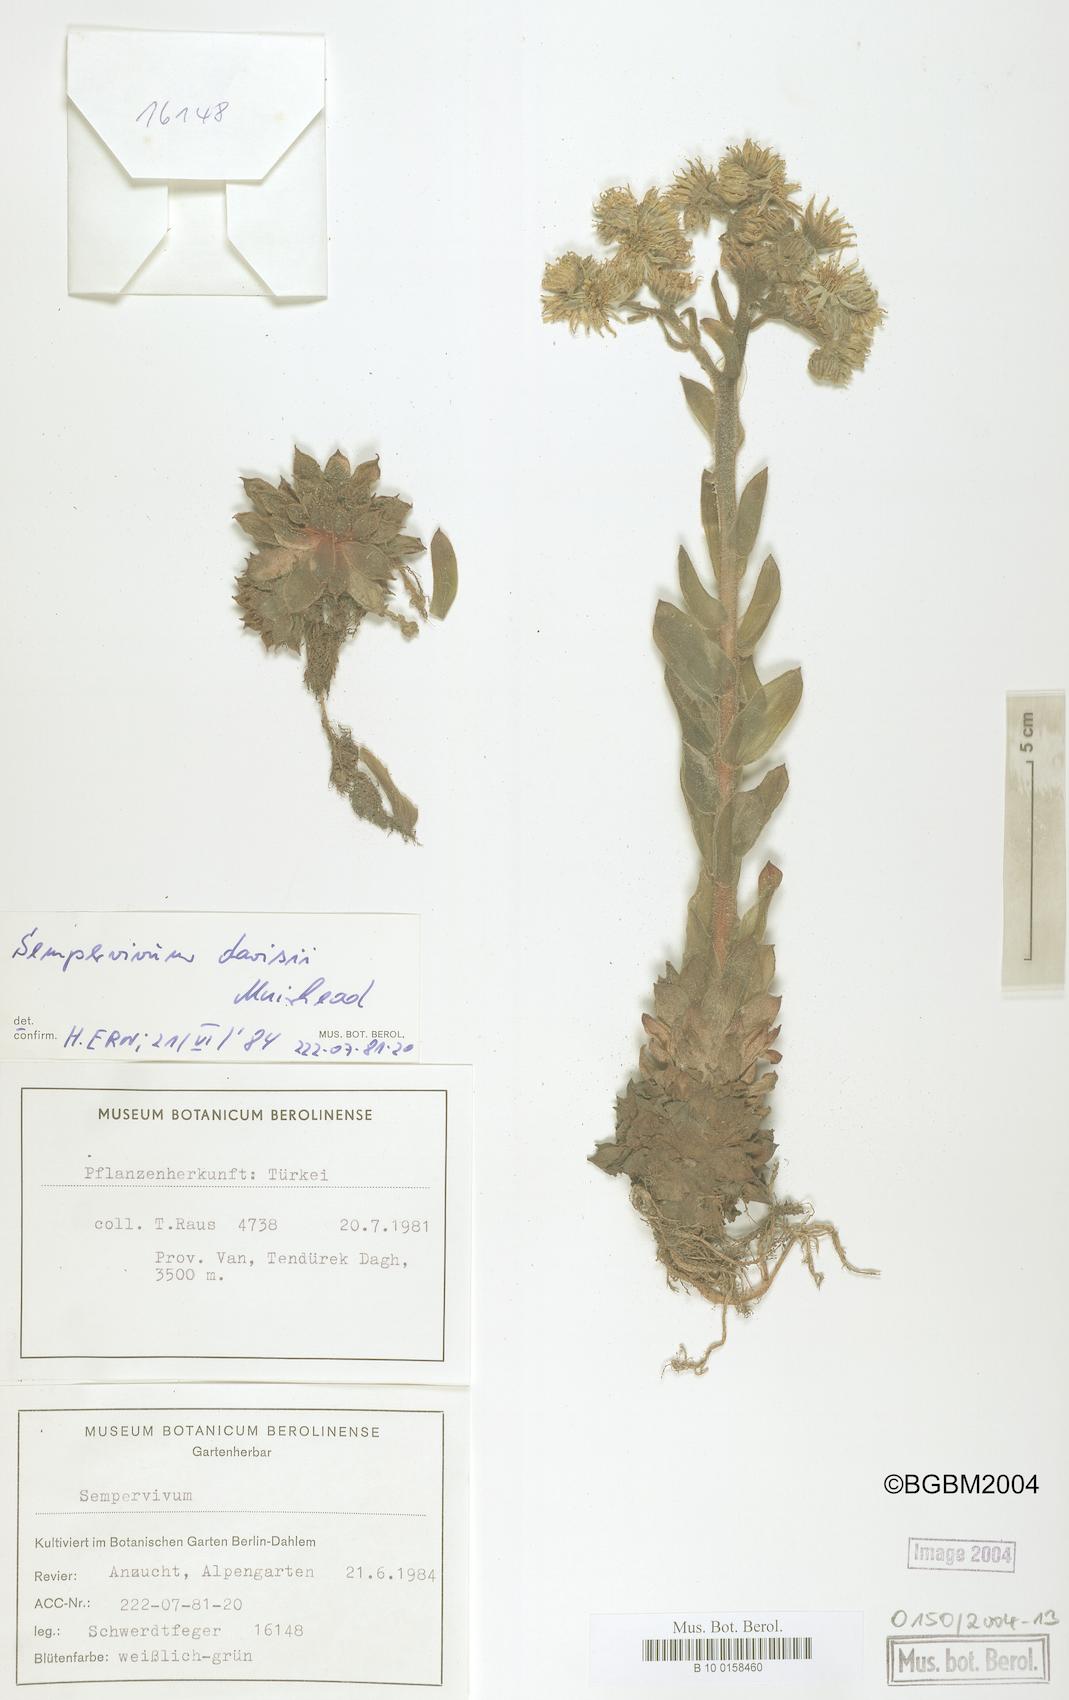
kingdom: Plantae
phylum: Tracheophyta
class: Magnoliopsida
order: Saxifragales
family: Crassulaceae
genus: Sempervivum
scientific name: Sempervivum davisii
